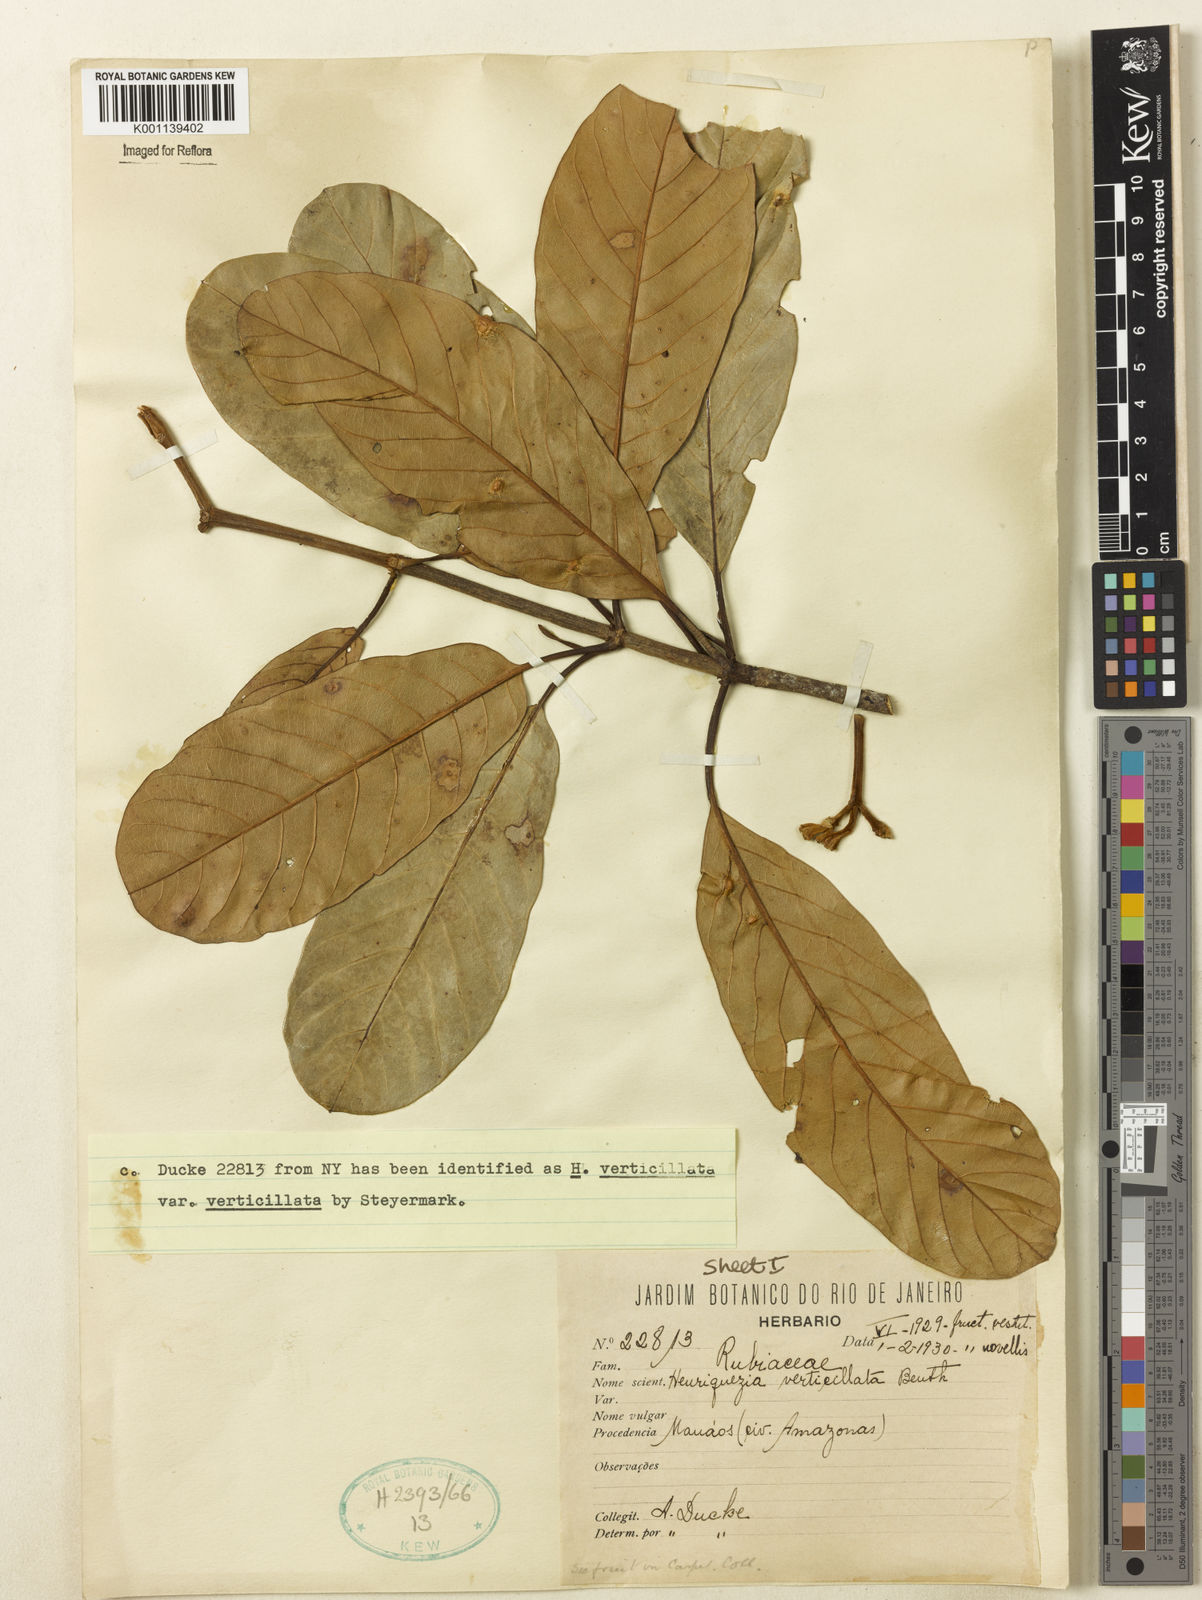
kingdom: Plantae
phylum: Tracheophyta
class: Magnoliopsida
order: Gentianales
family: Rubiaceae
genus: Henriquezia
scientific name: Henriquezia verticillata
